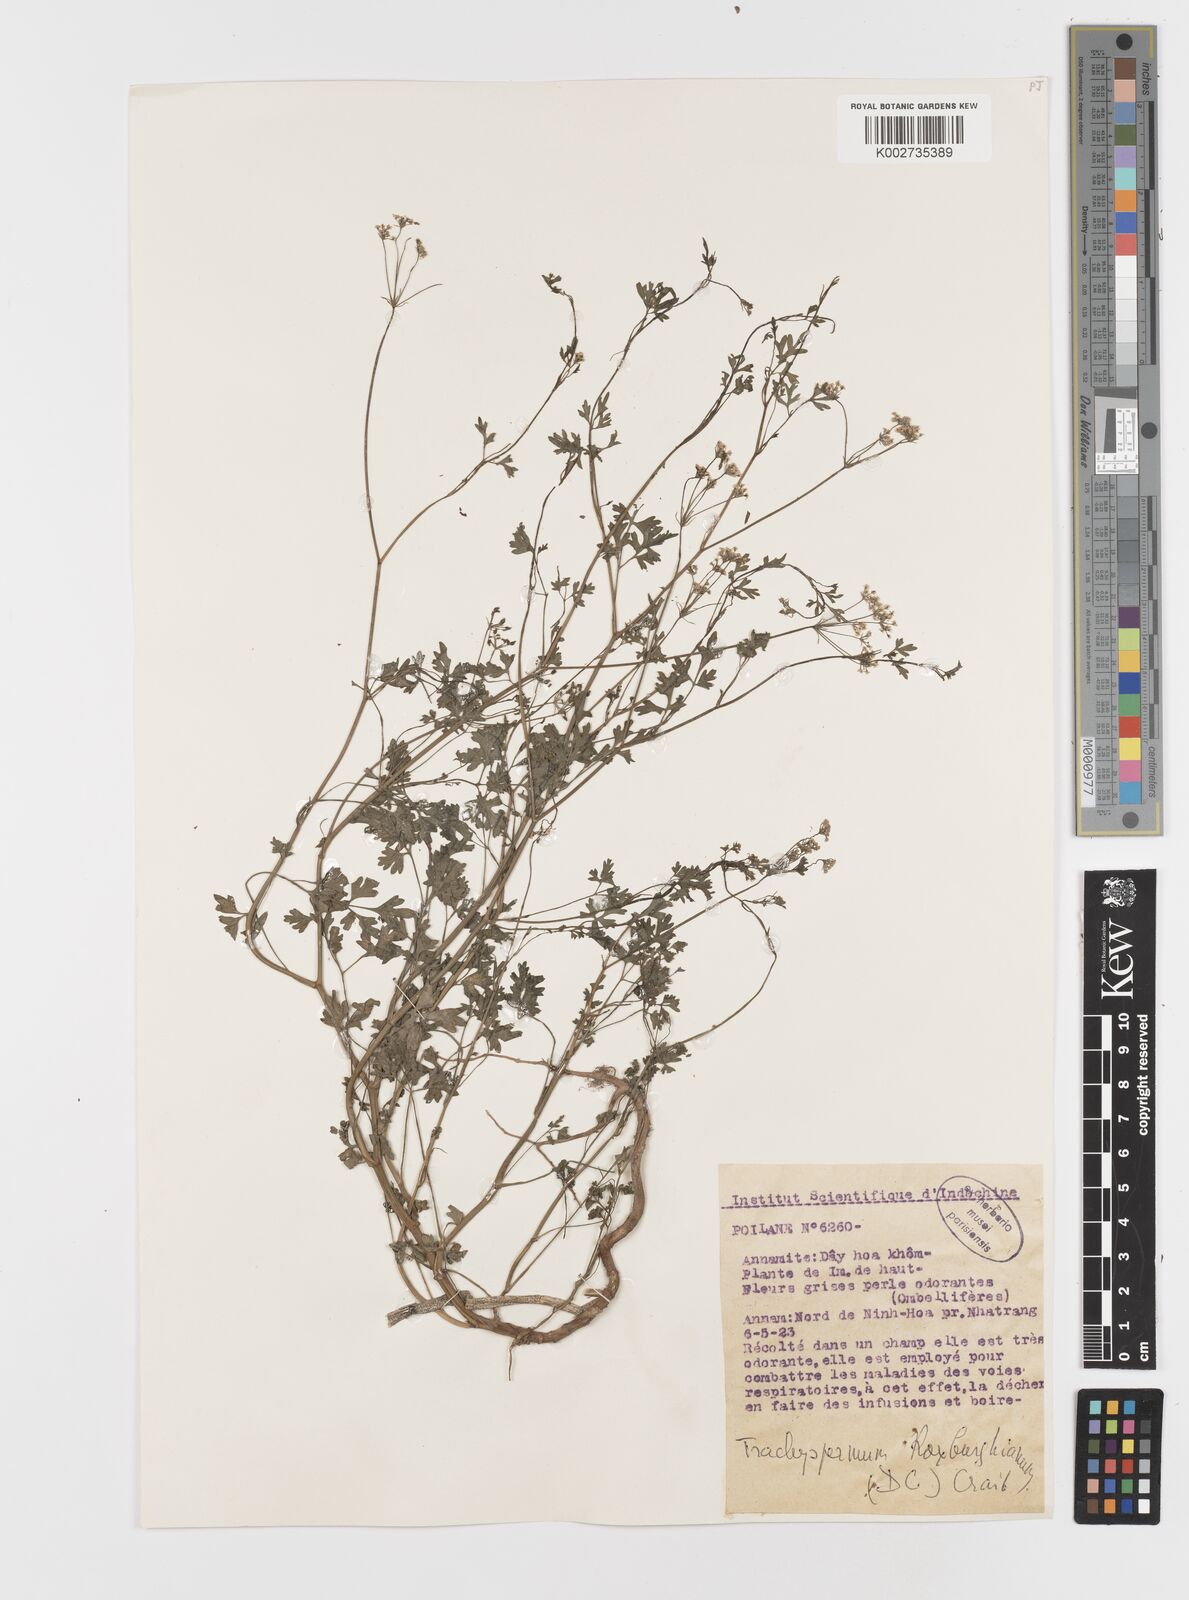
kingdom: Plantae
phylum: Tracheophyta
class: Magnoliopsida
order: Apiales
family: Apiaceae
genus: Psammogeton
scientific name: Psammogeton involucratum
